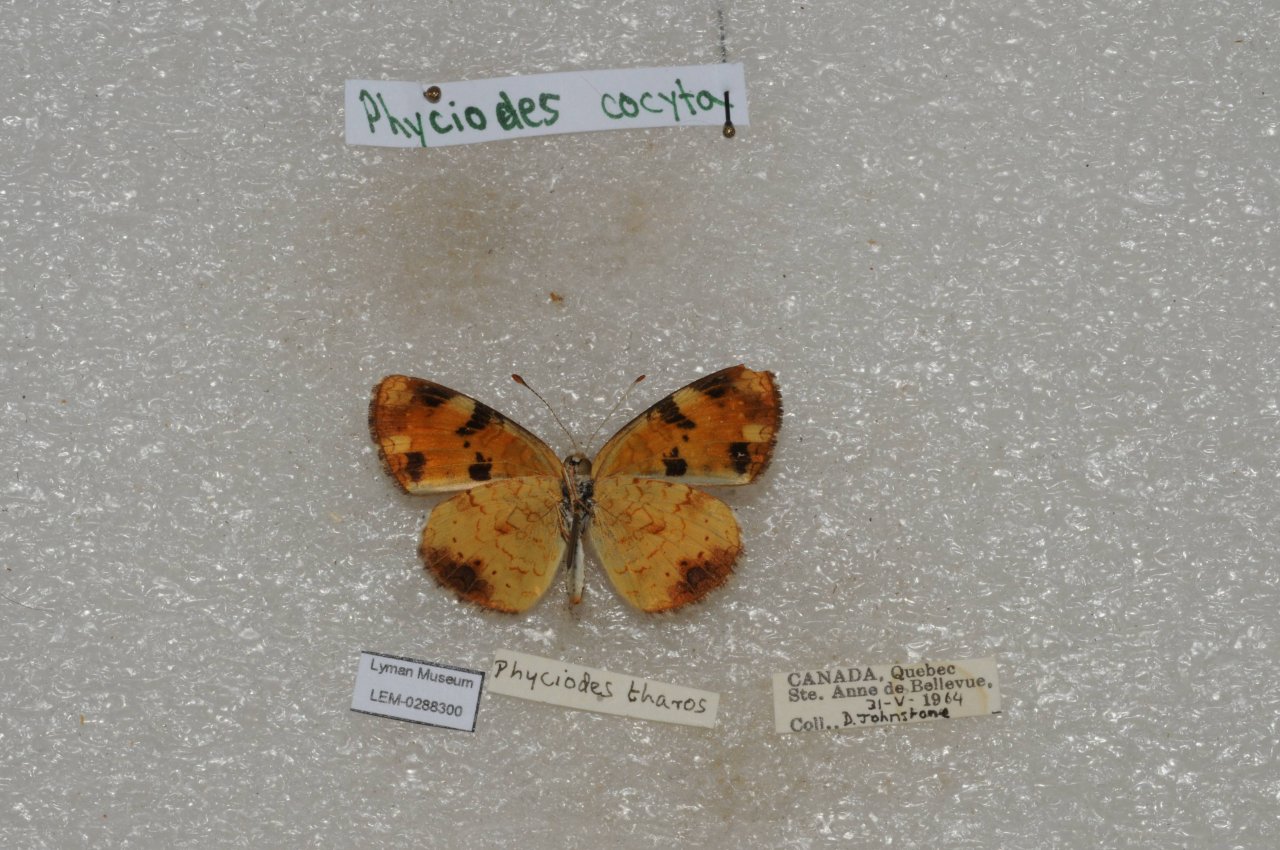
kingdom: Animalia
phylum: Arthropoda
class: Insecta
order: Lepidoptera
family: Nymphalidae
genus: Phyciodes
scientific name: Phyciodes tharos
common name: Northern Crescent
